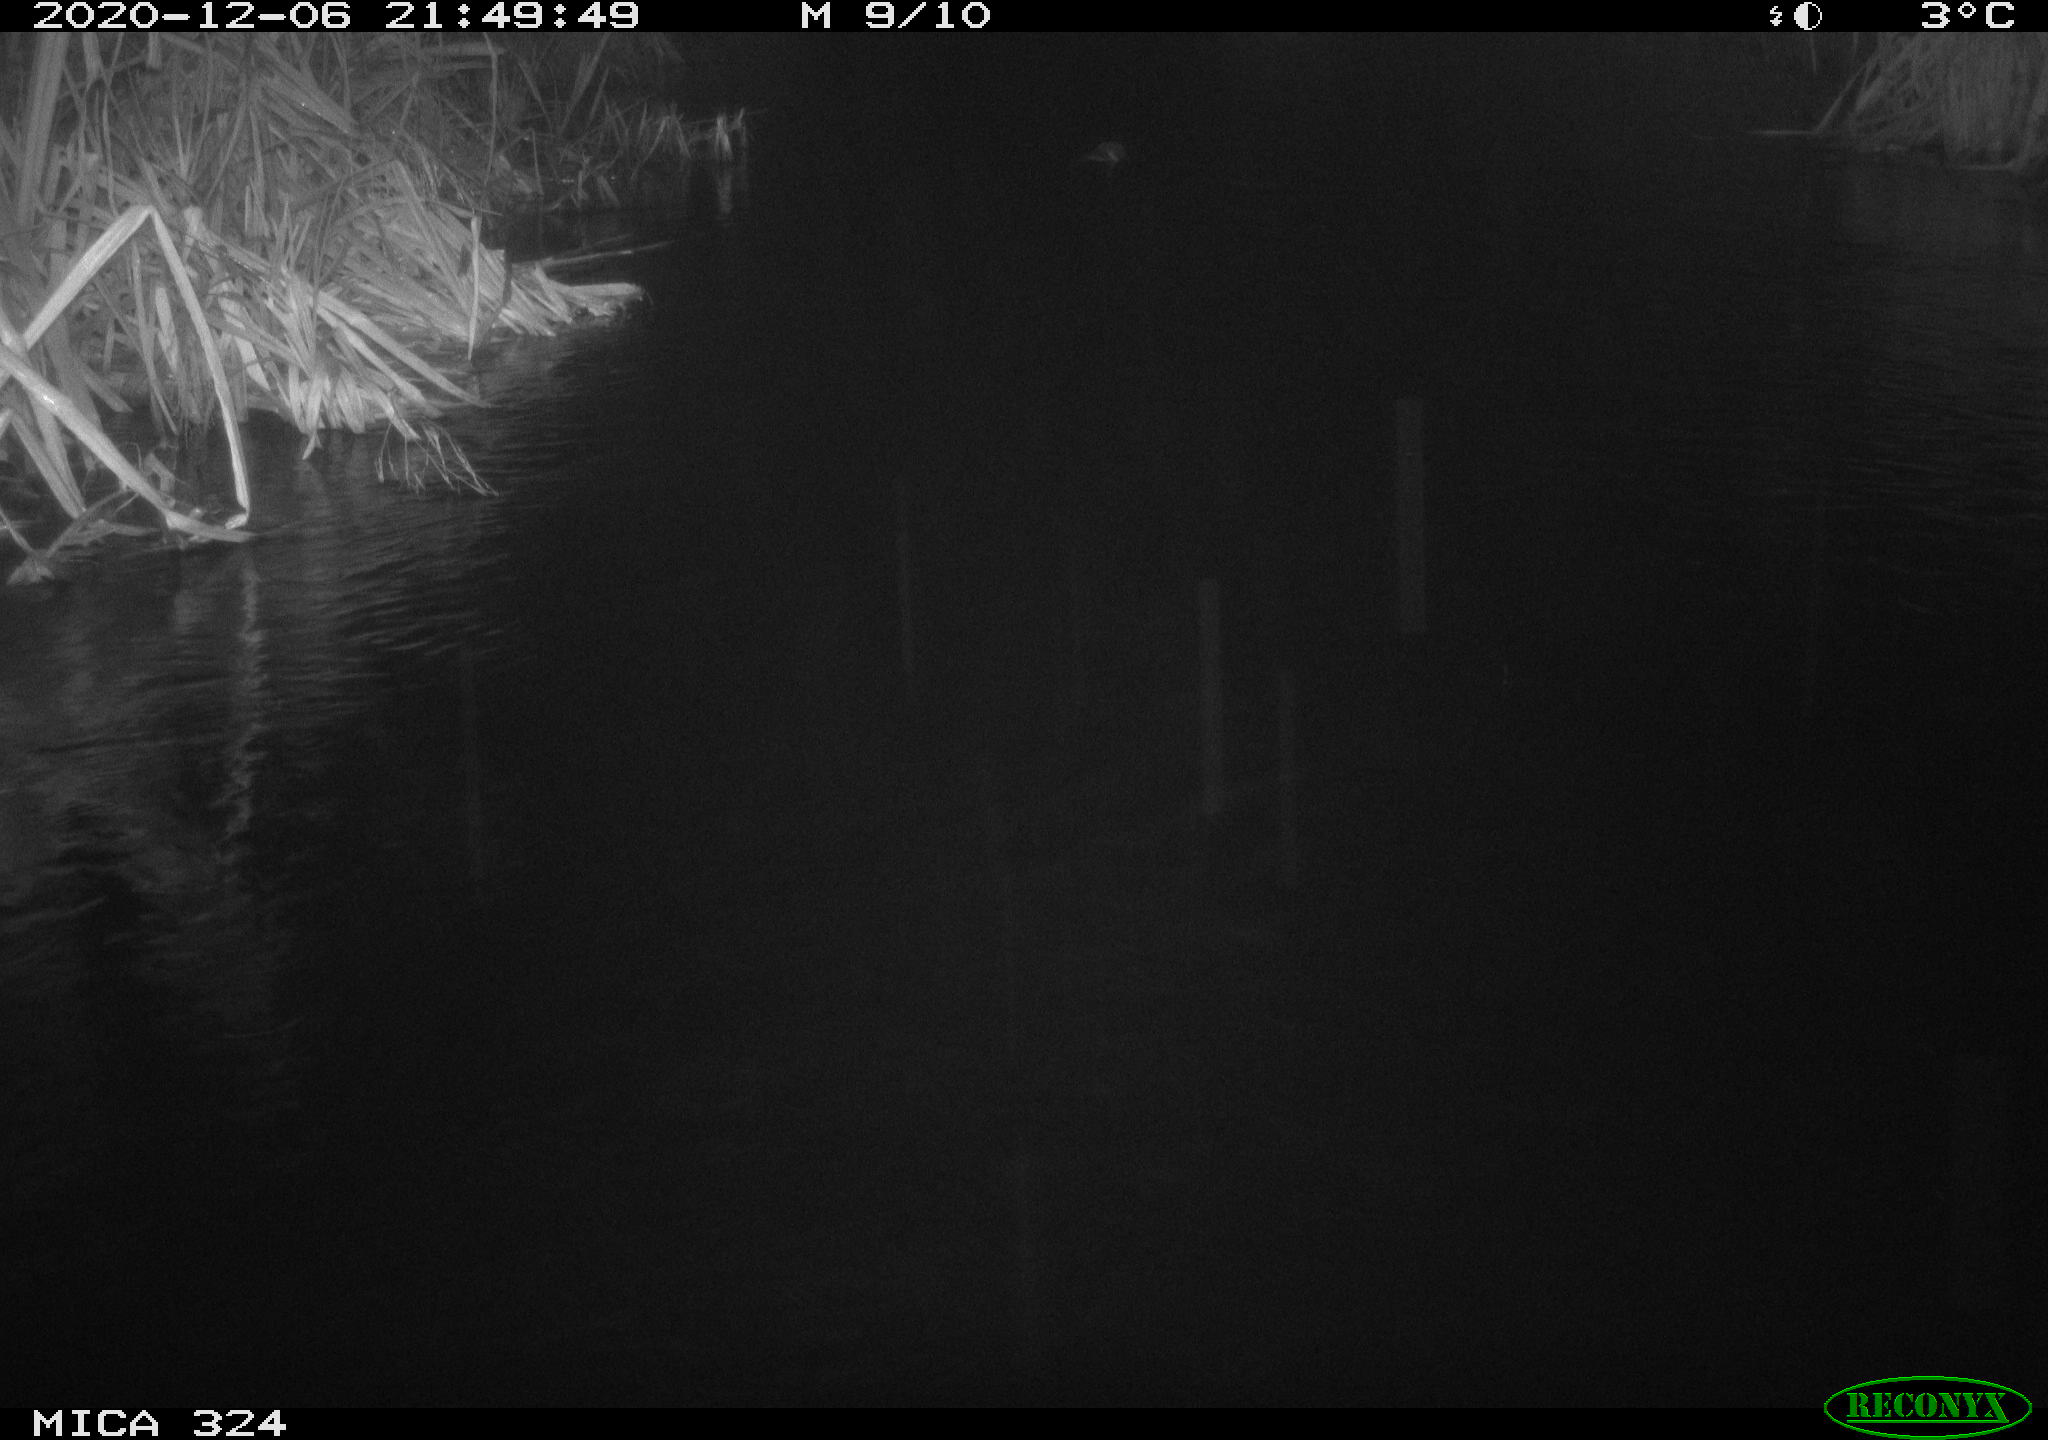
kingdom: Animalia
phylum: Chordata
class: Mammalia
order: Rodentia
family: Cricetidae
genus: Ondatra
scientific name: Ondatra zibethicus
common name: Muskrat
